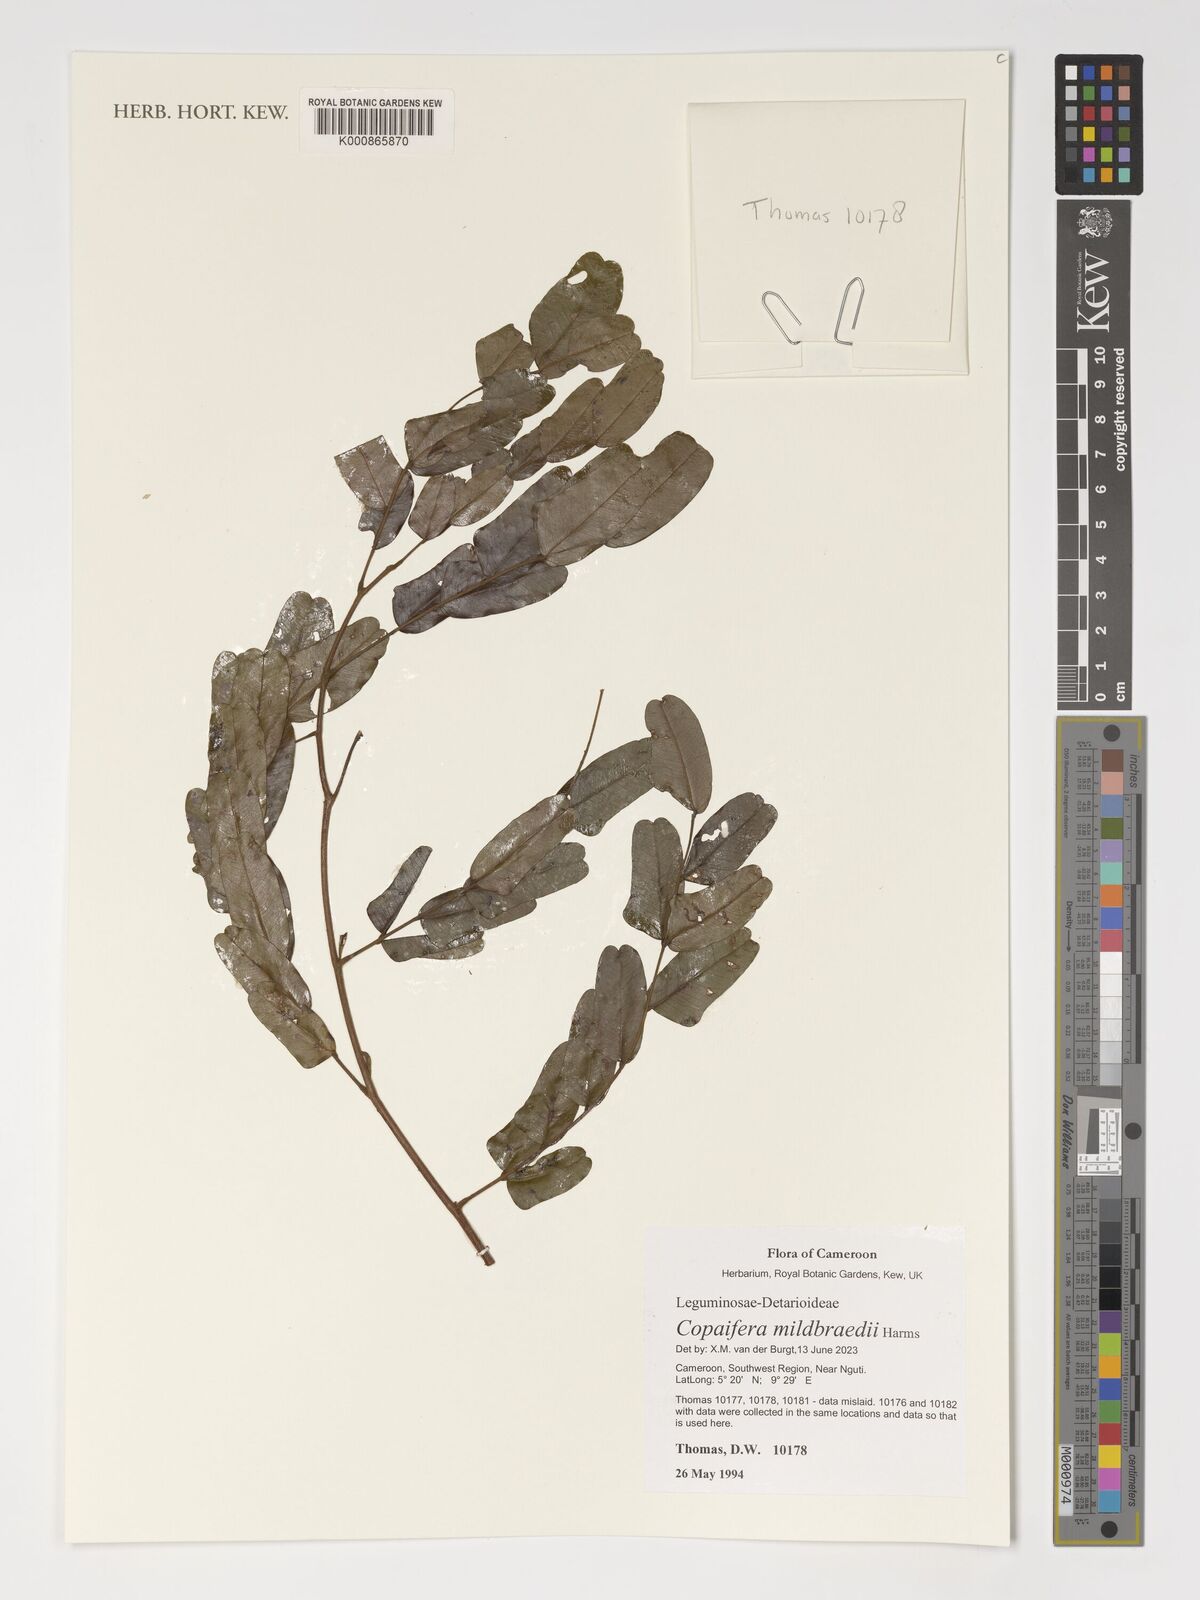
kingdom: Plantae
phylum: Tracheophyta
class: Magnoliopsida
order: Fabales
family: Fabaceae
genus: Copaifera
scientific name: Copaifera mildbraedii
